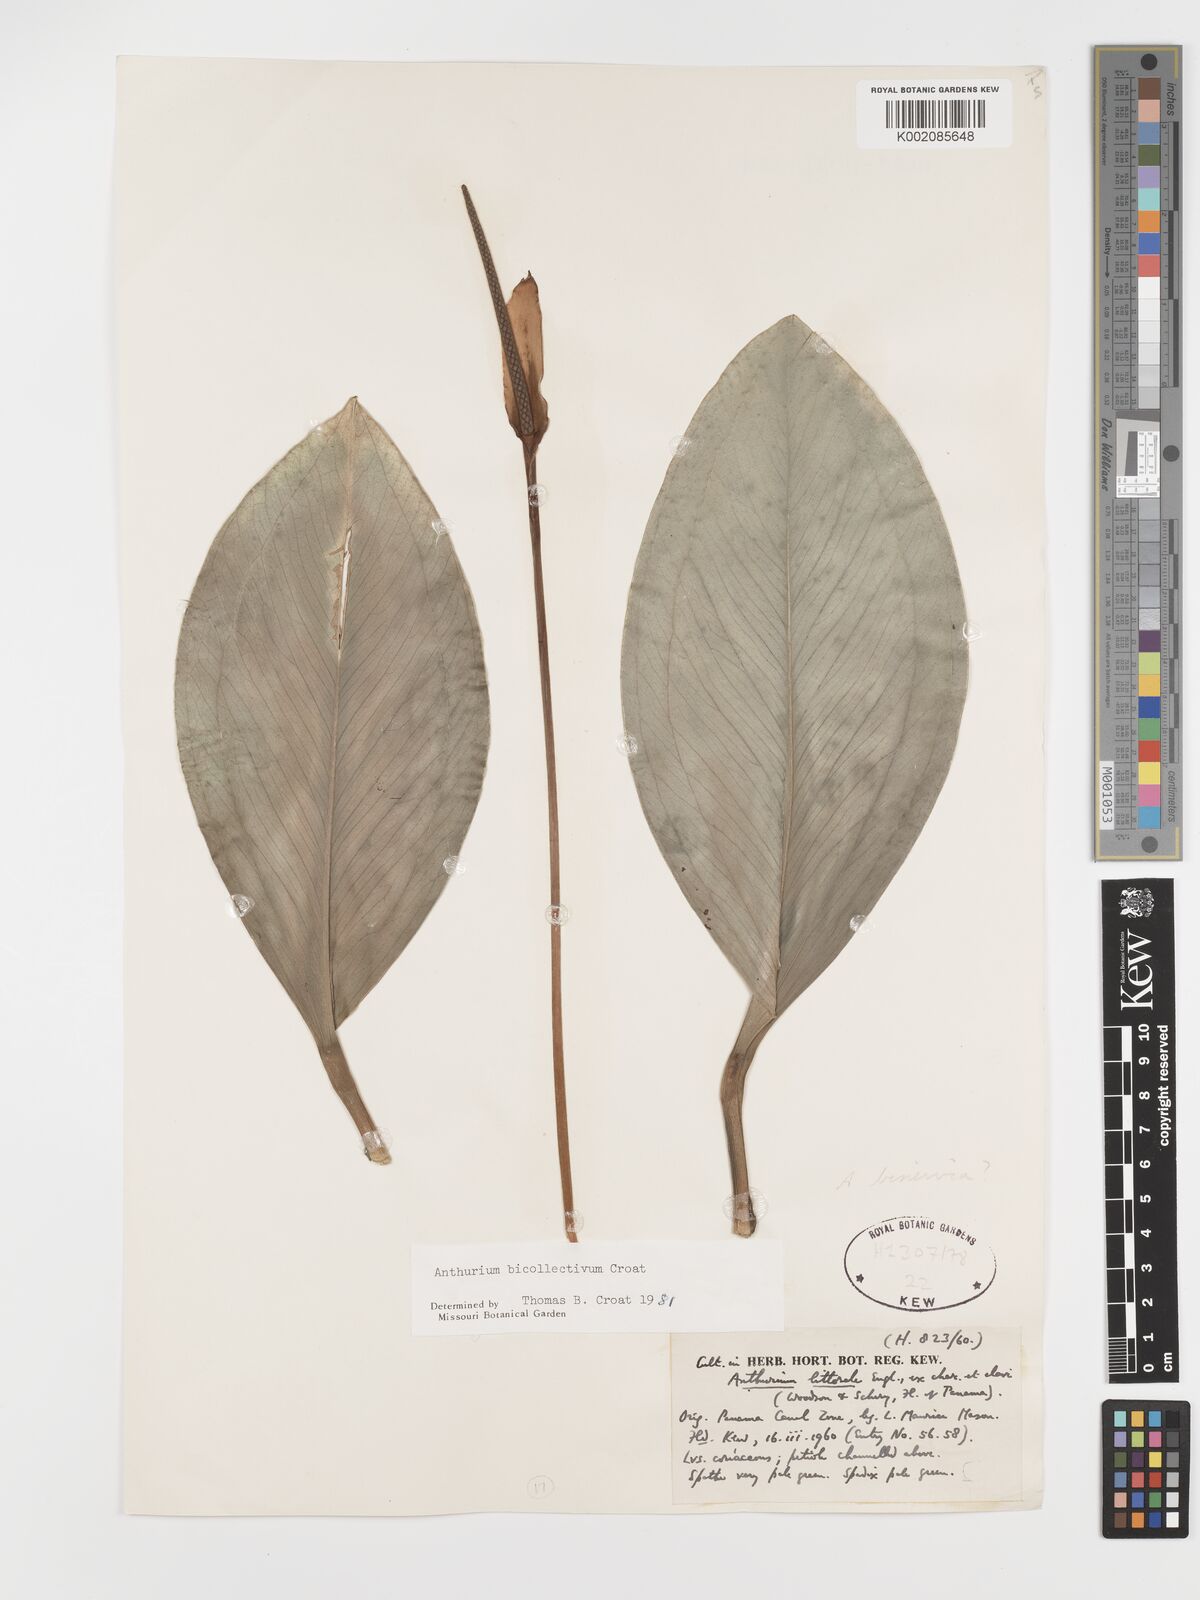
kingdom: Plantae
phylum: Tracheophyta
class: Liliopsida
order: Alismatales
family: Araceae
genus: Anthurium
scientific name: Anthurium durandii
